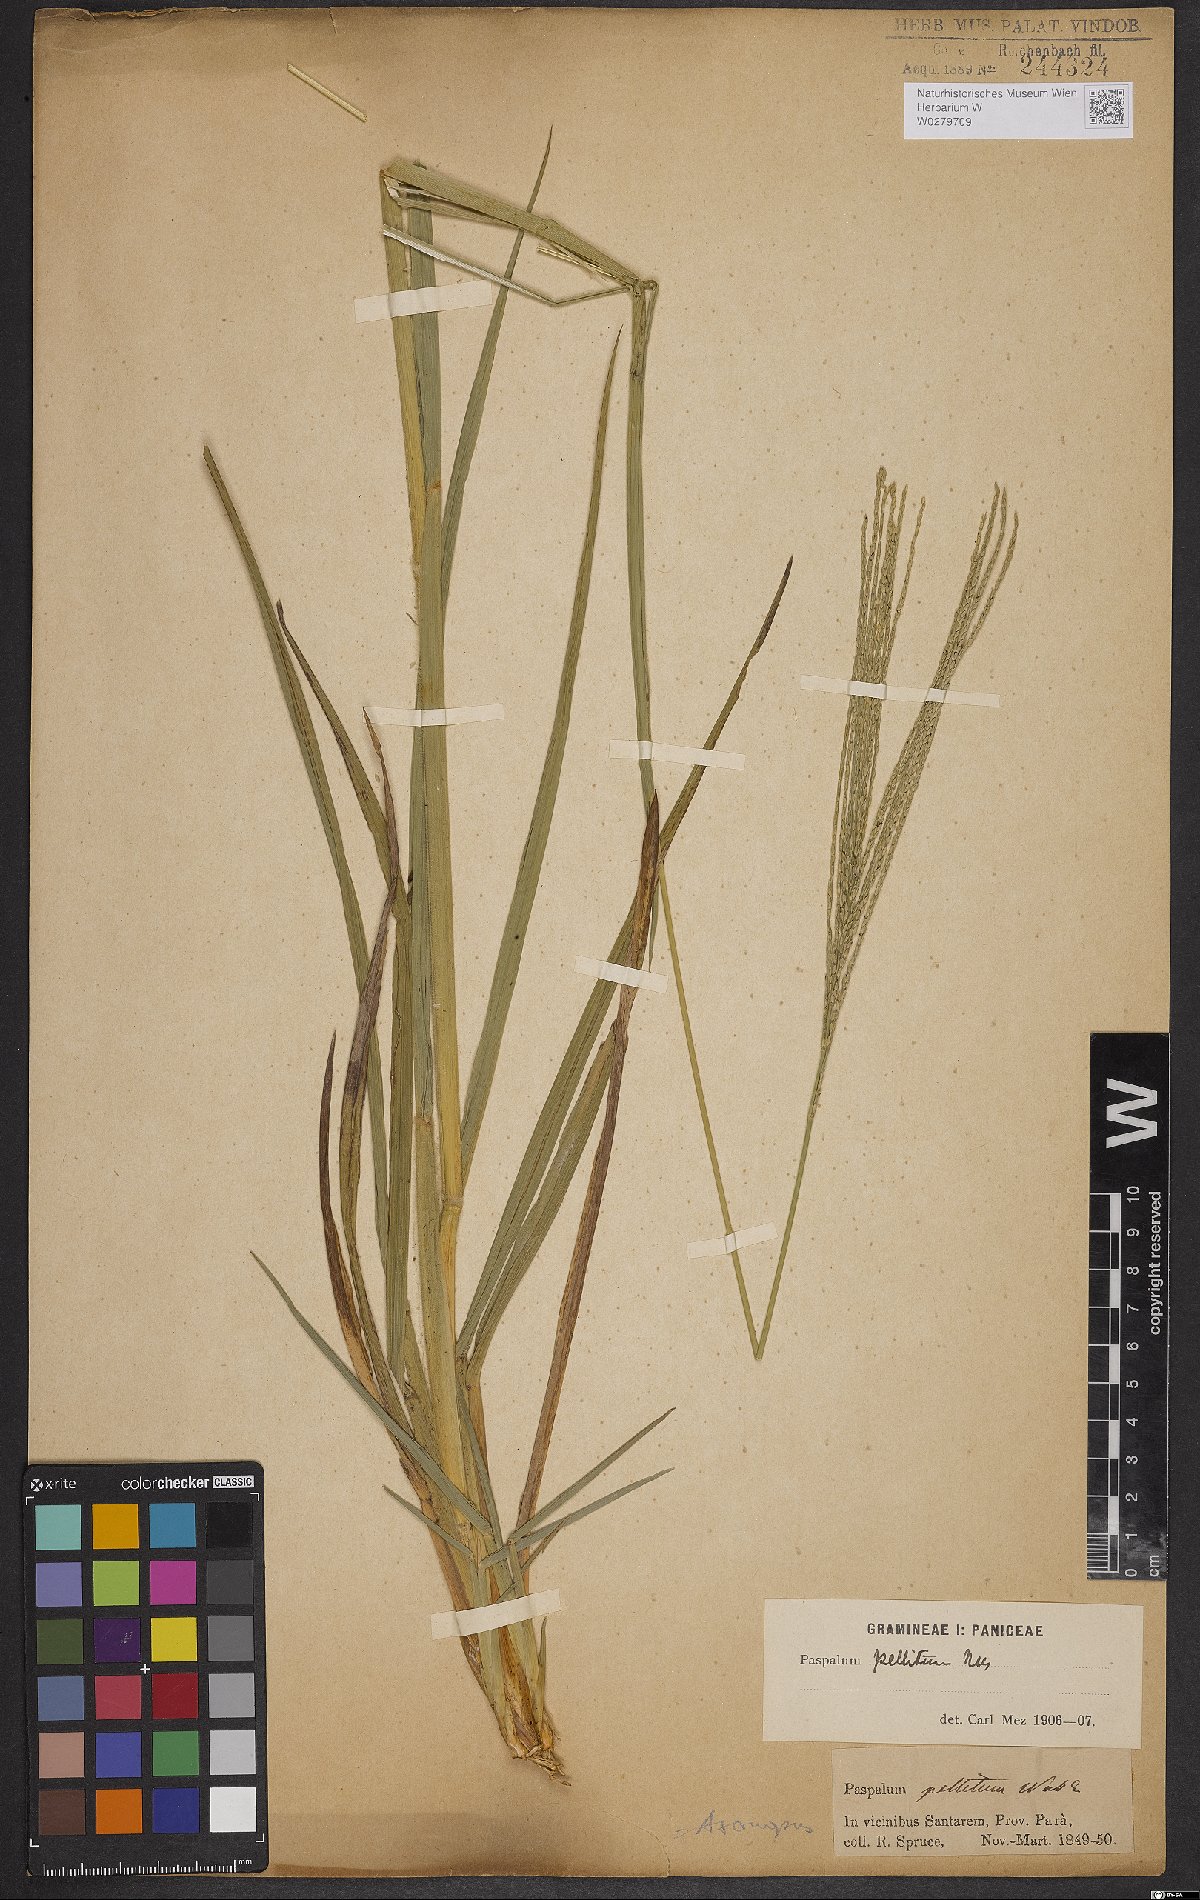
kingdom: Plantae
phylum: Tracheophyta
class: Liliopsida
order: Poales
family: Poaceae
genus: Axonopus
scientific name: Axonopus siccus
